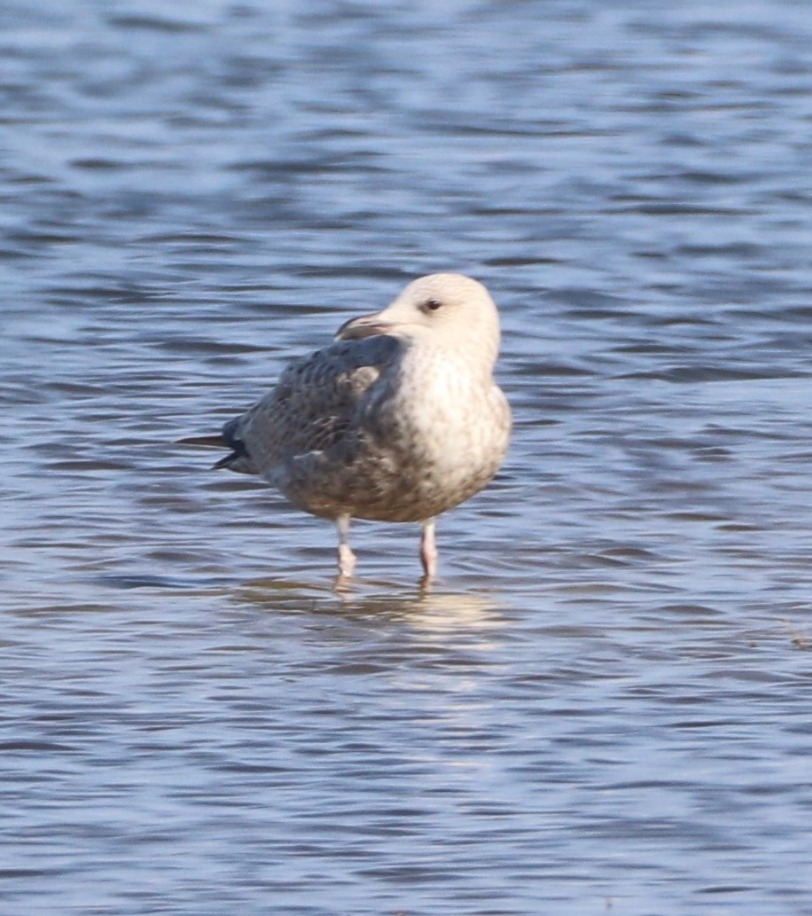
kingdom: Animalia
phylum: Chordata
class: Aves
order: Charadriiformes
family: Laridae
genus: Larus
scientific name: Larus argentatus
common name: Sølvmåge
